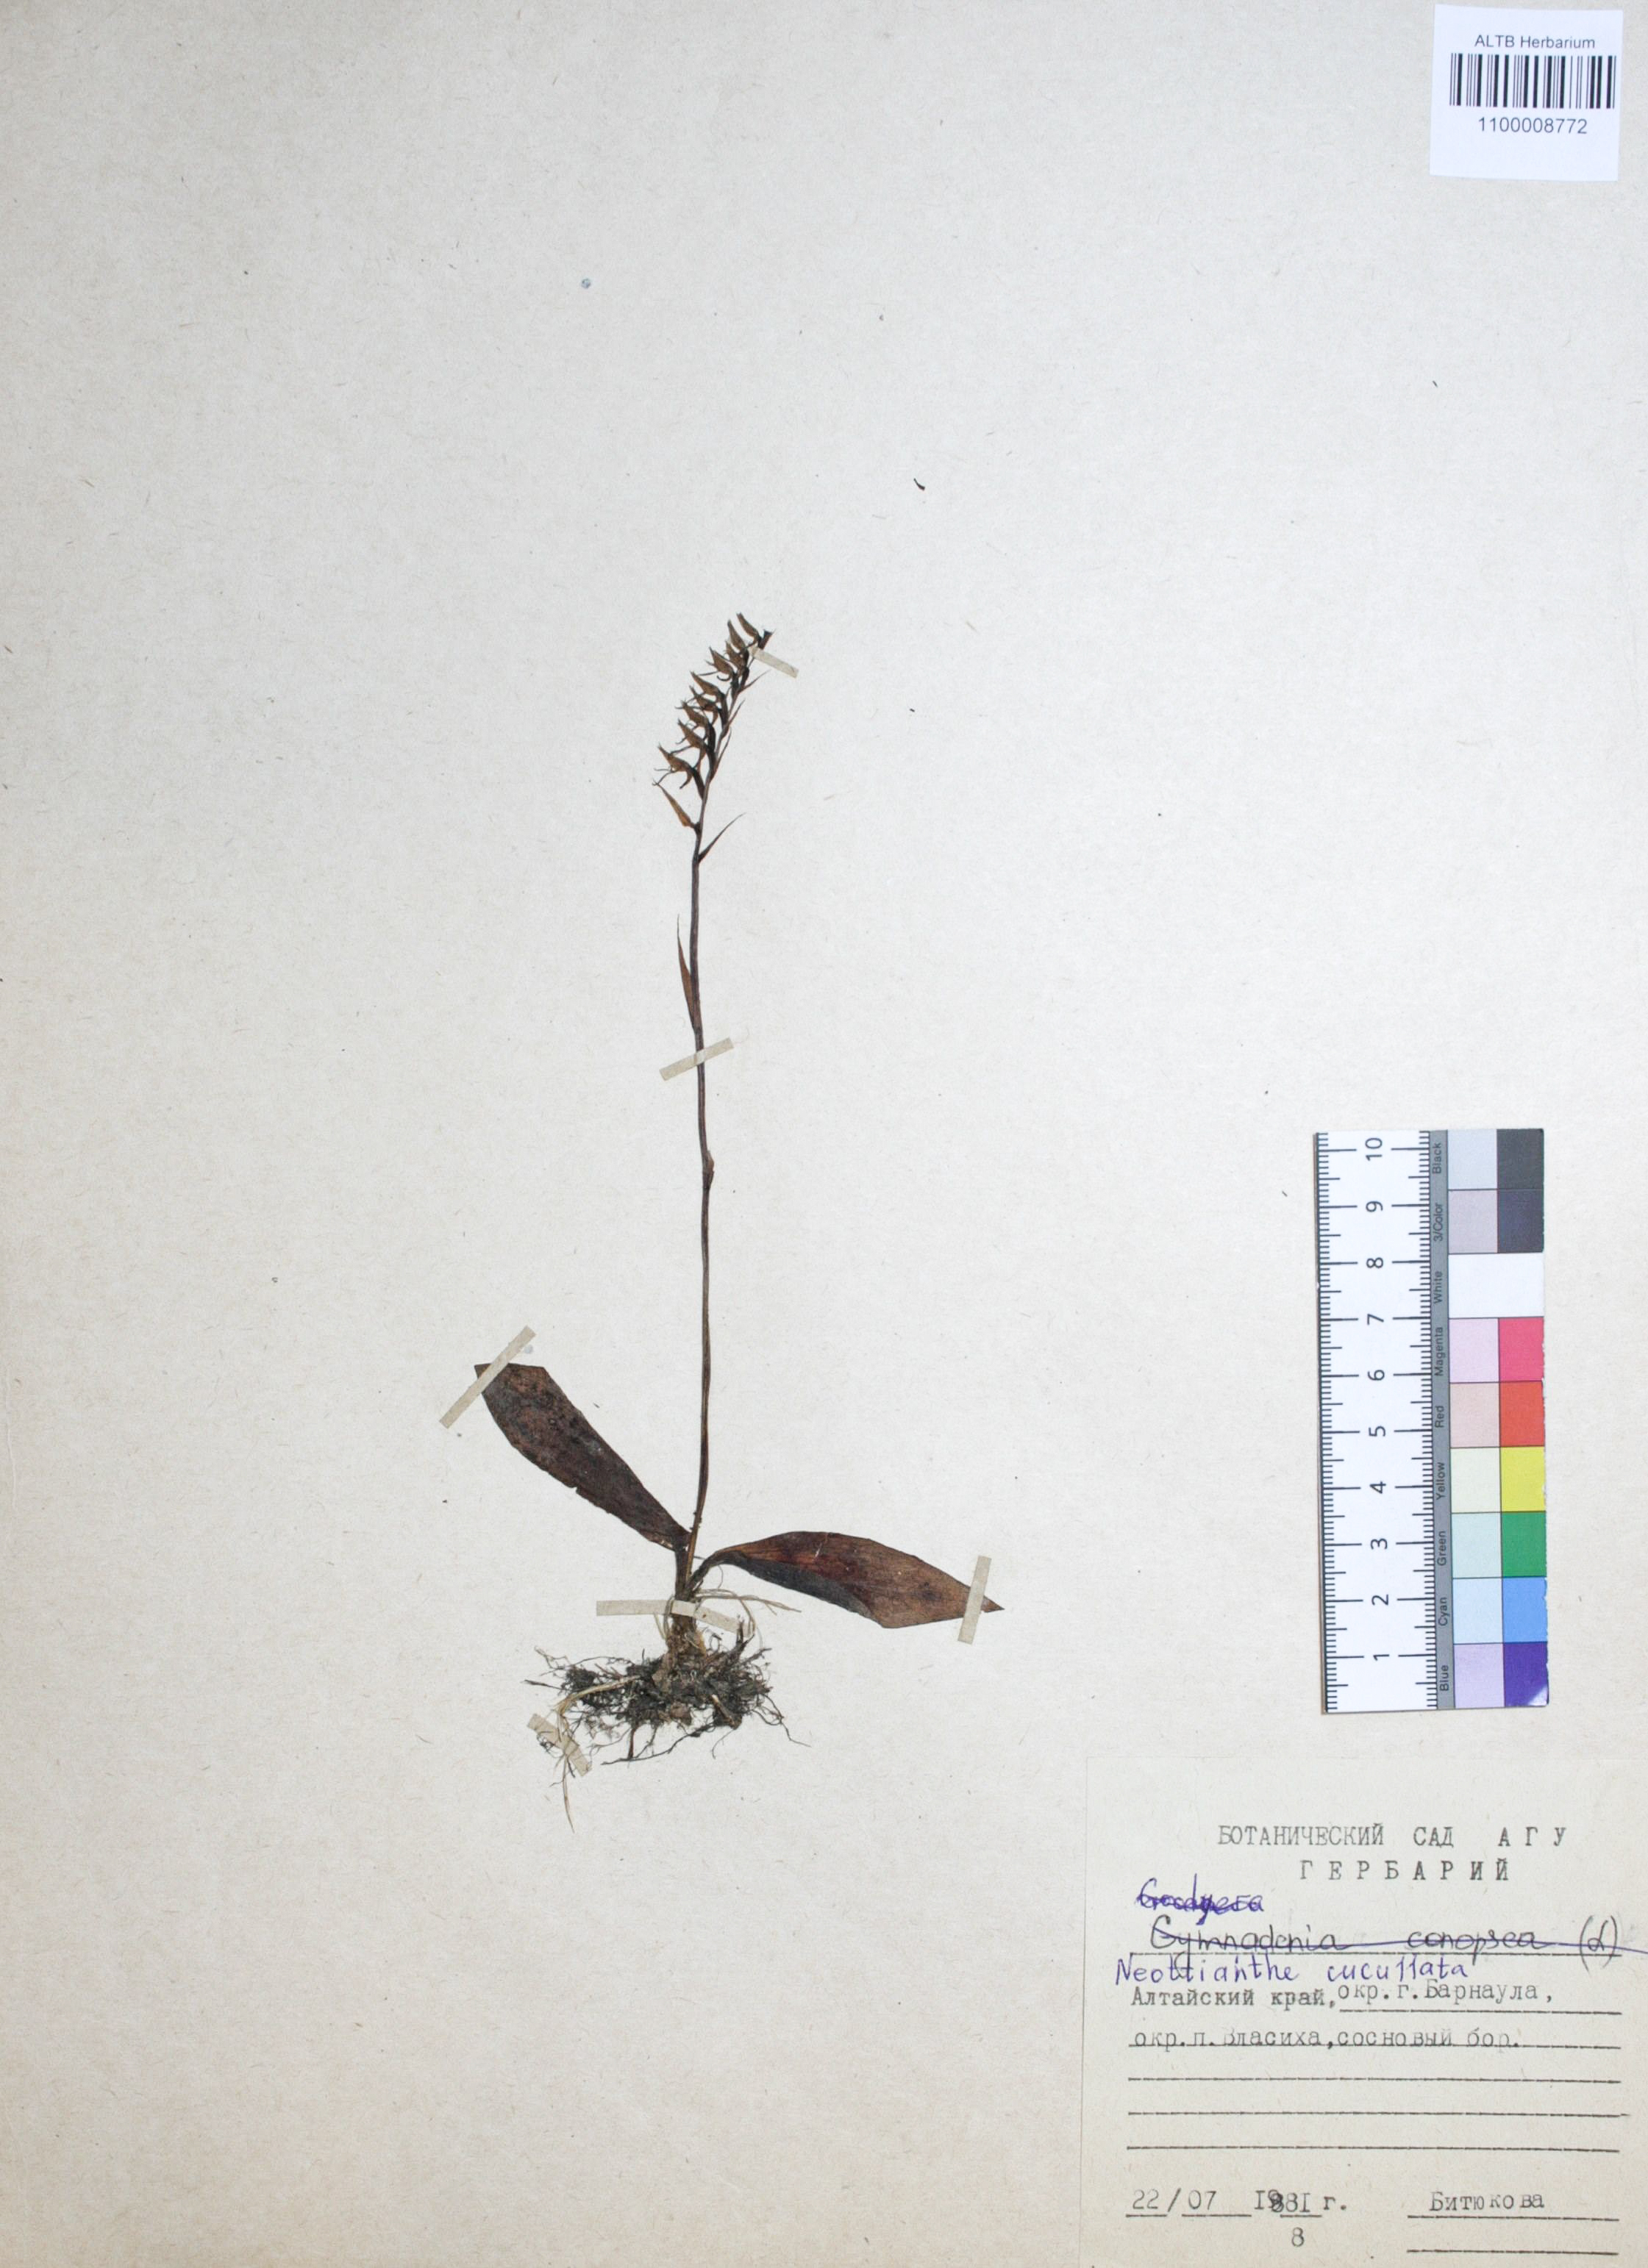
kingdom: Plantae
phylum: Tracheophyta
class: Liliopsida
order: Asparagales
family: Orchidaceae
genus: Hemipilia
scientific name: Hemipilia cucullata
